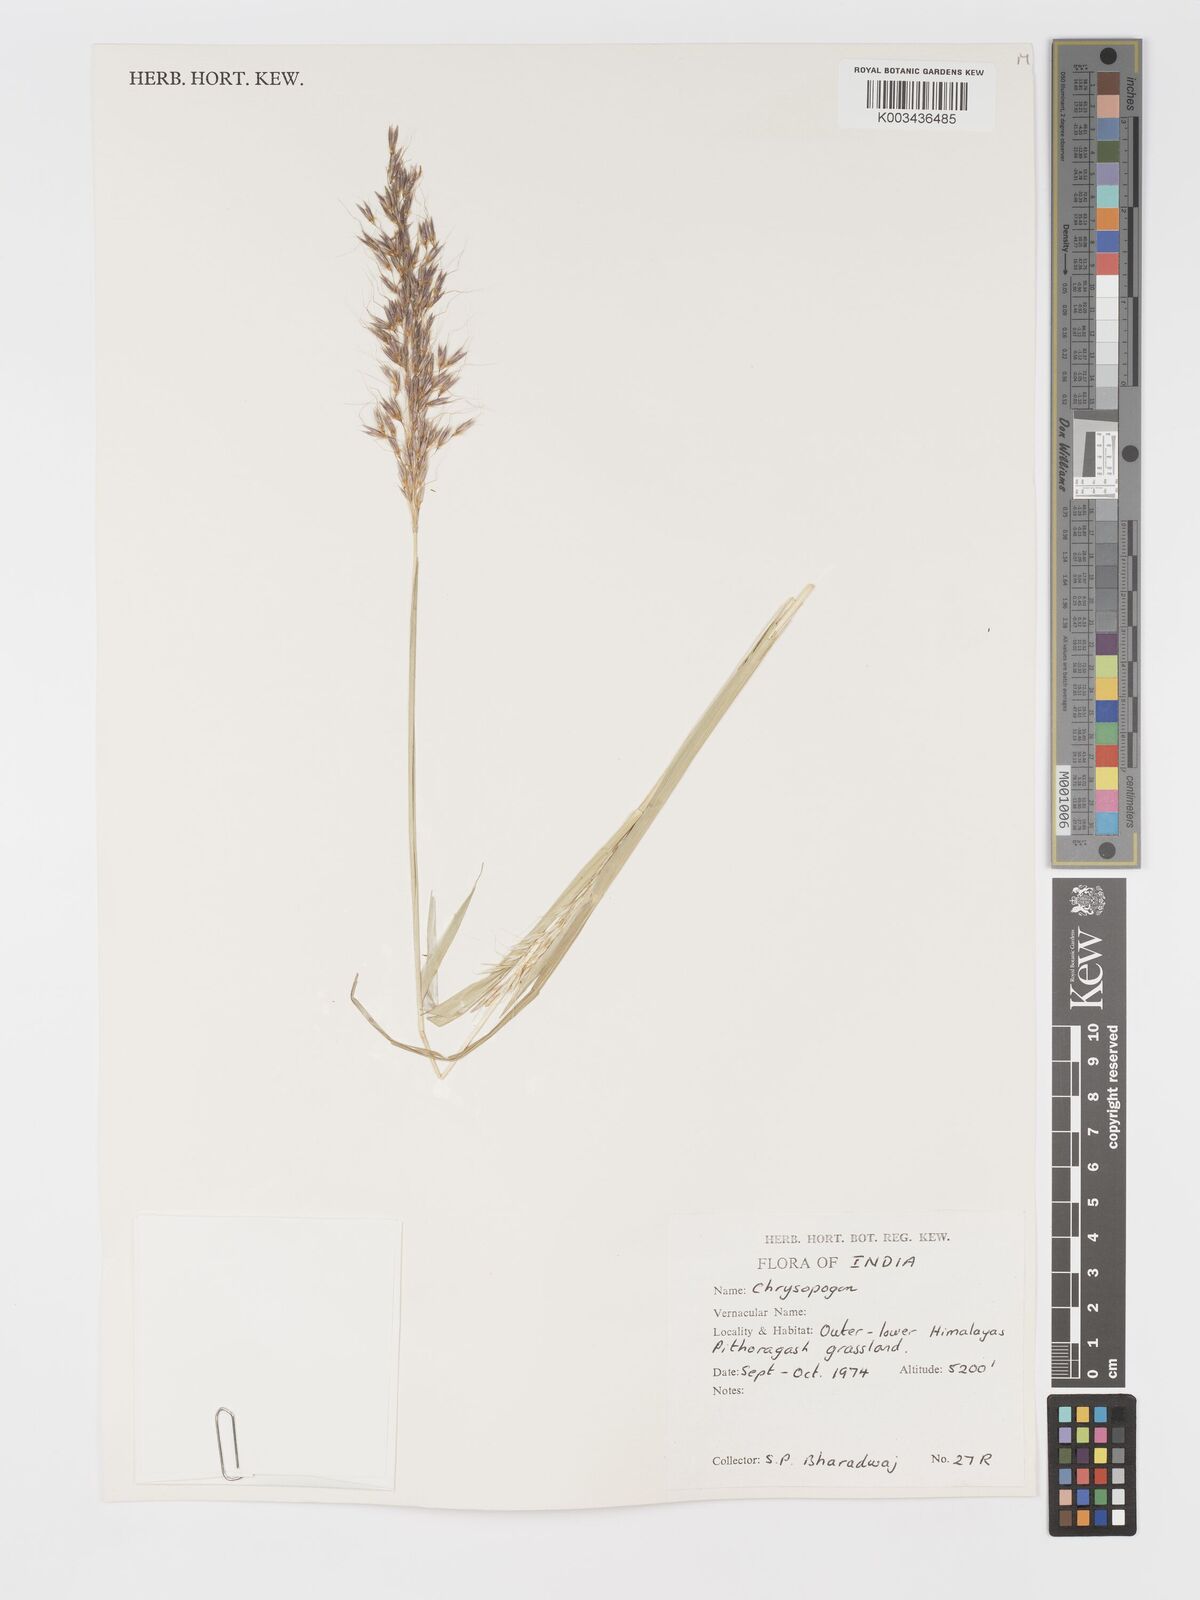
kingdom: Plantae
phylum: Tracheophyta
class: Liliopsida
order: Poales
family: Poaceae
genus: Chrysopogon
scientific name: Chrysopogon
